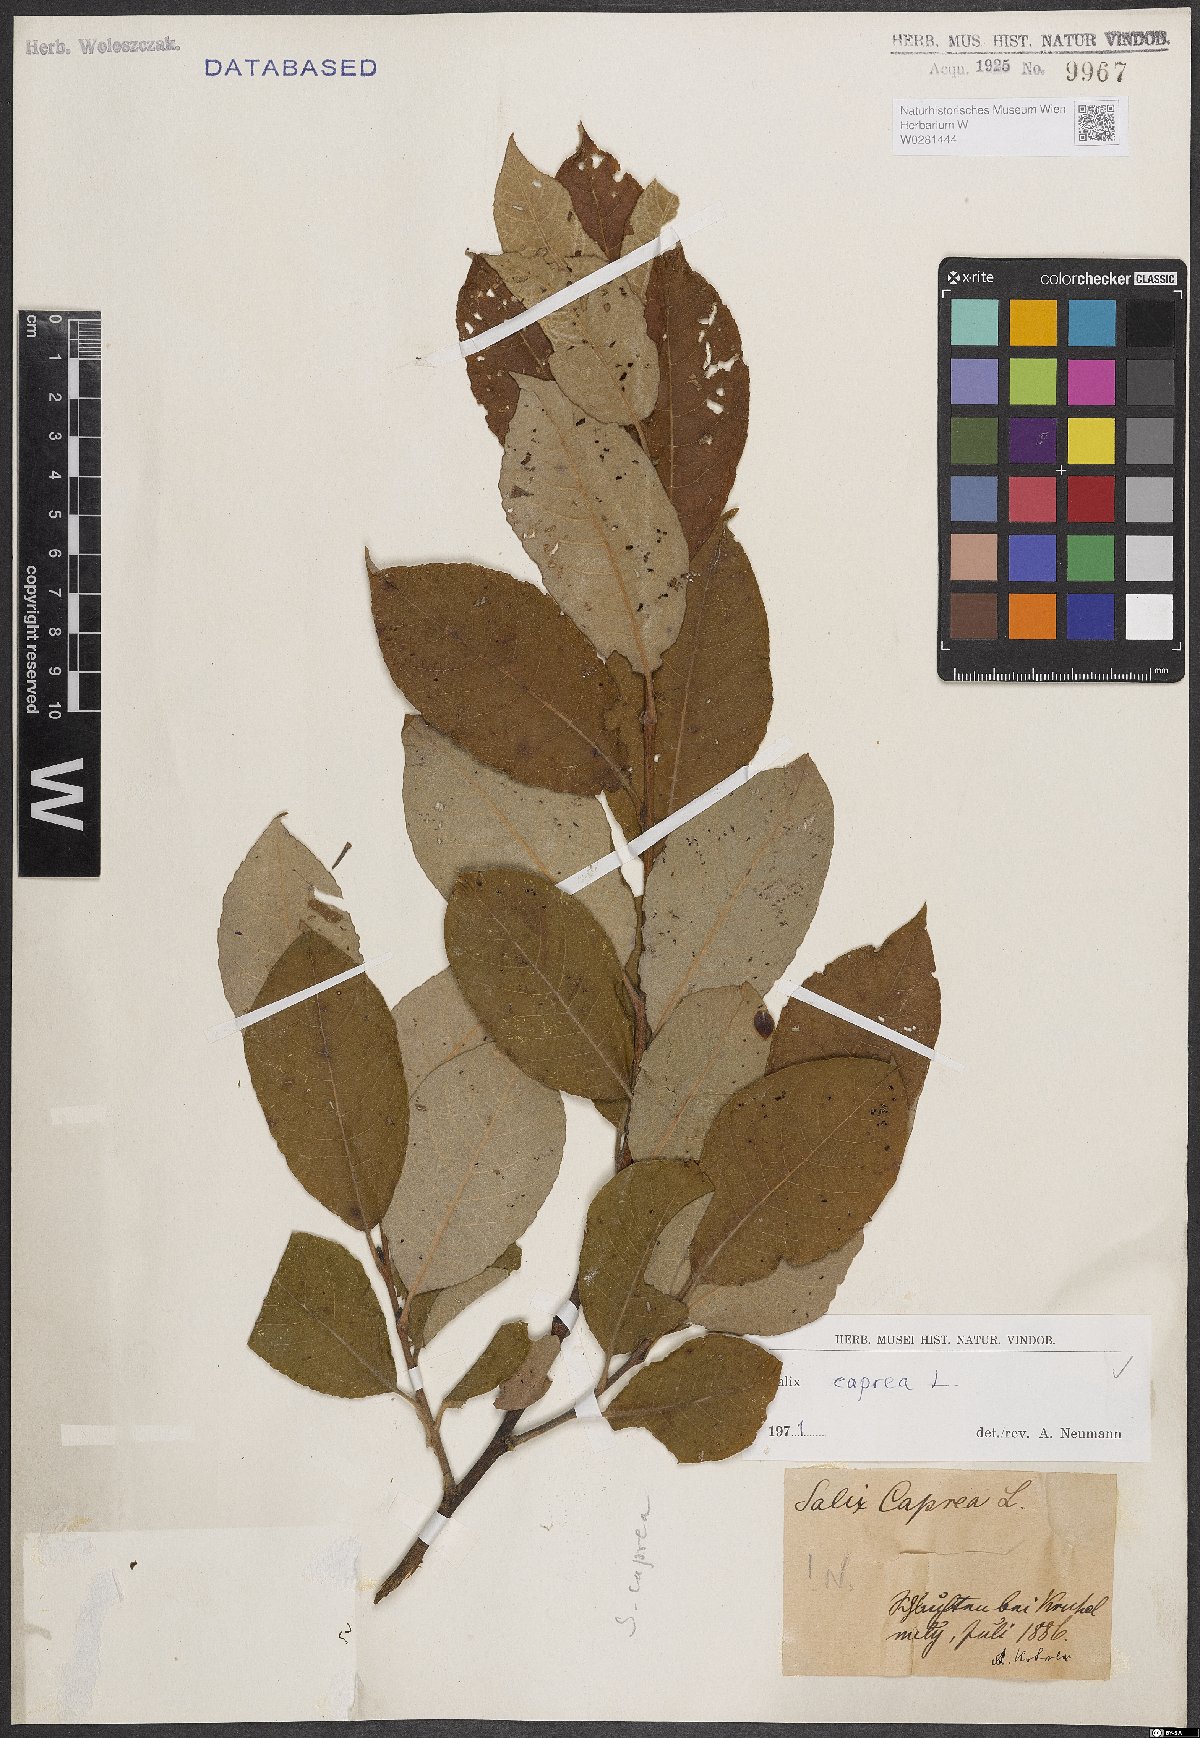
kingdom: Plantae
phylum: Tracheophyta
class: Magnoliopsida
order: Malpighiales
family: Salicaceae
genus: Salix
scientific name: Salix caprea
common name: Goat willow
